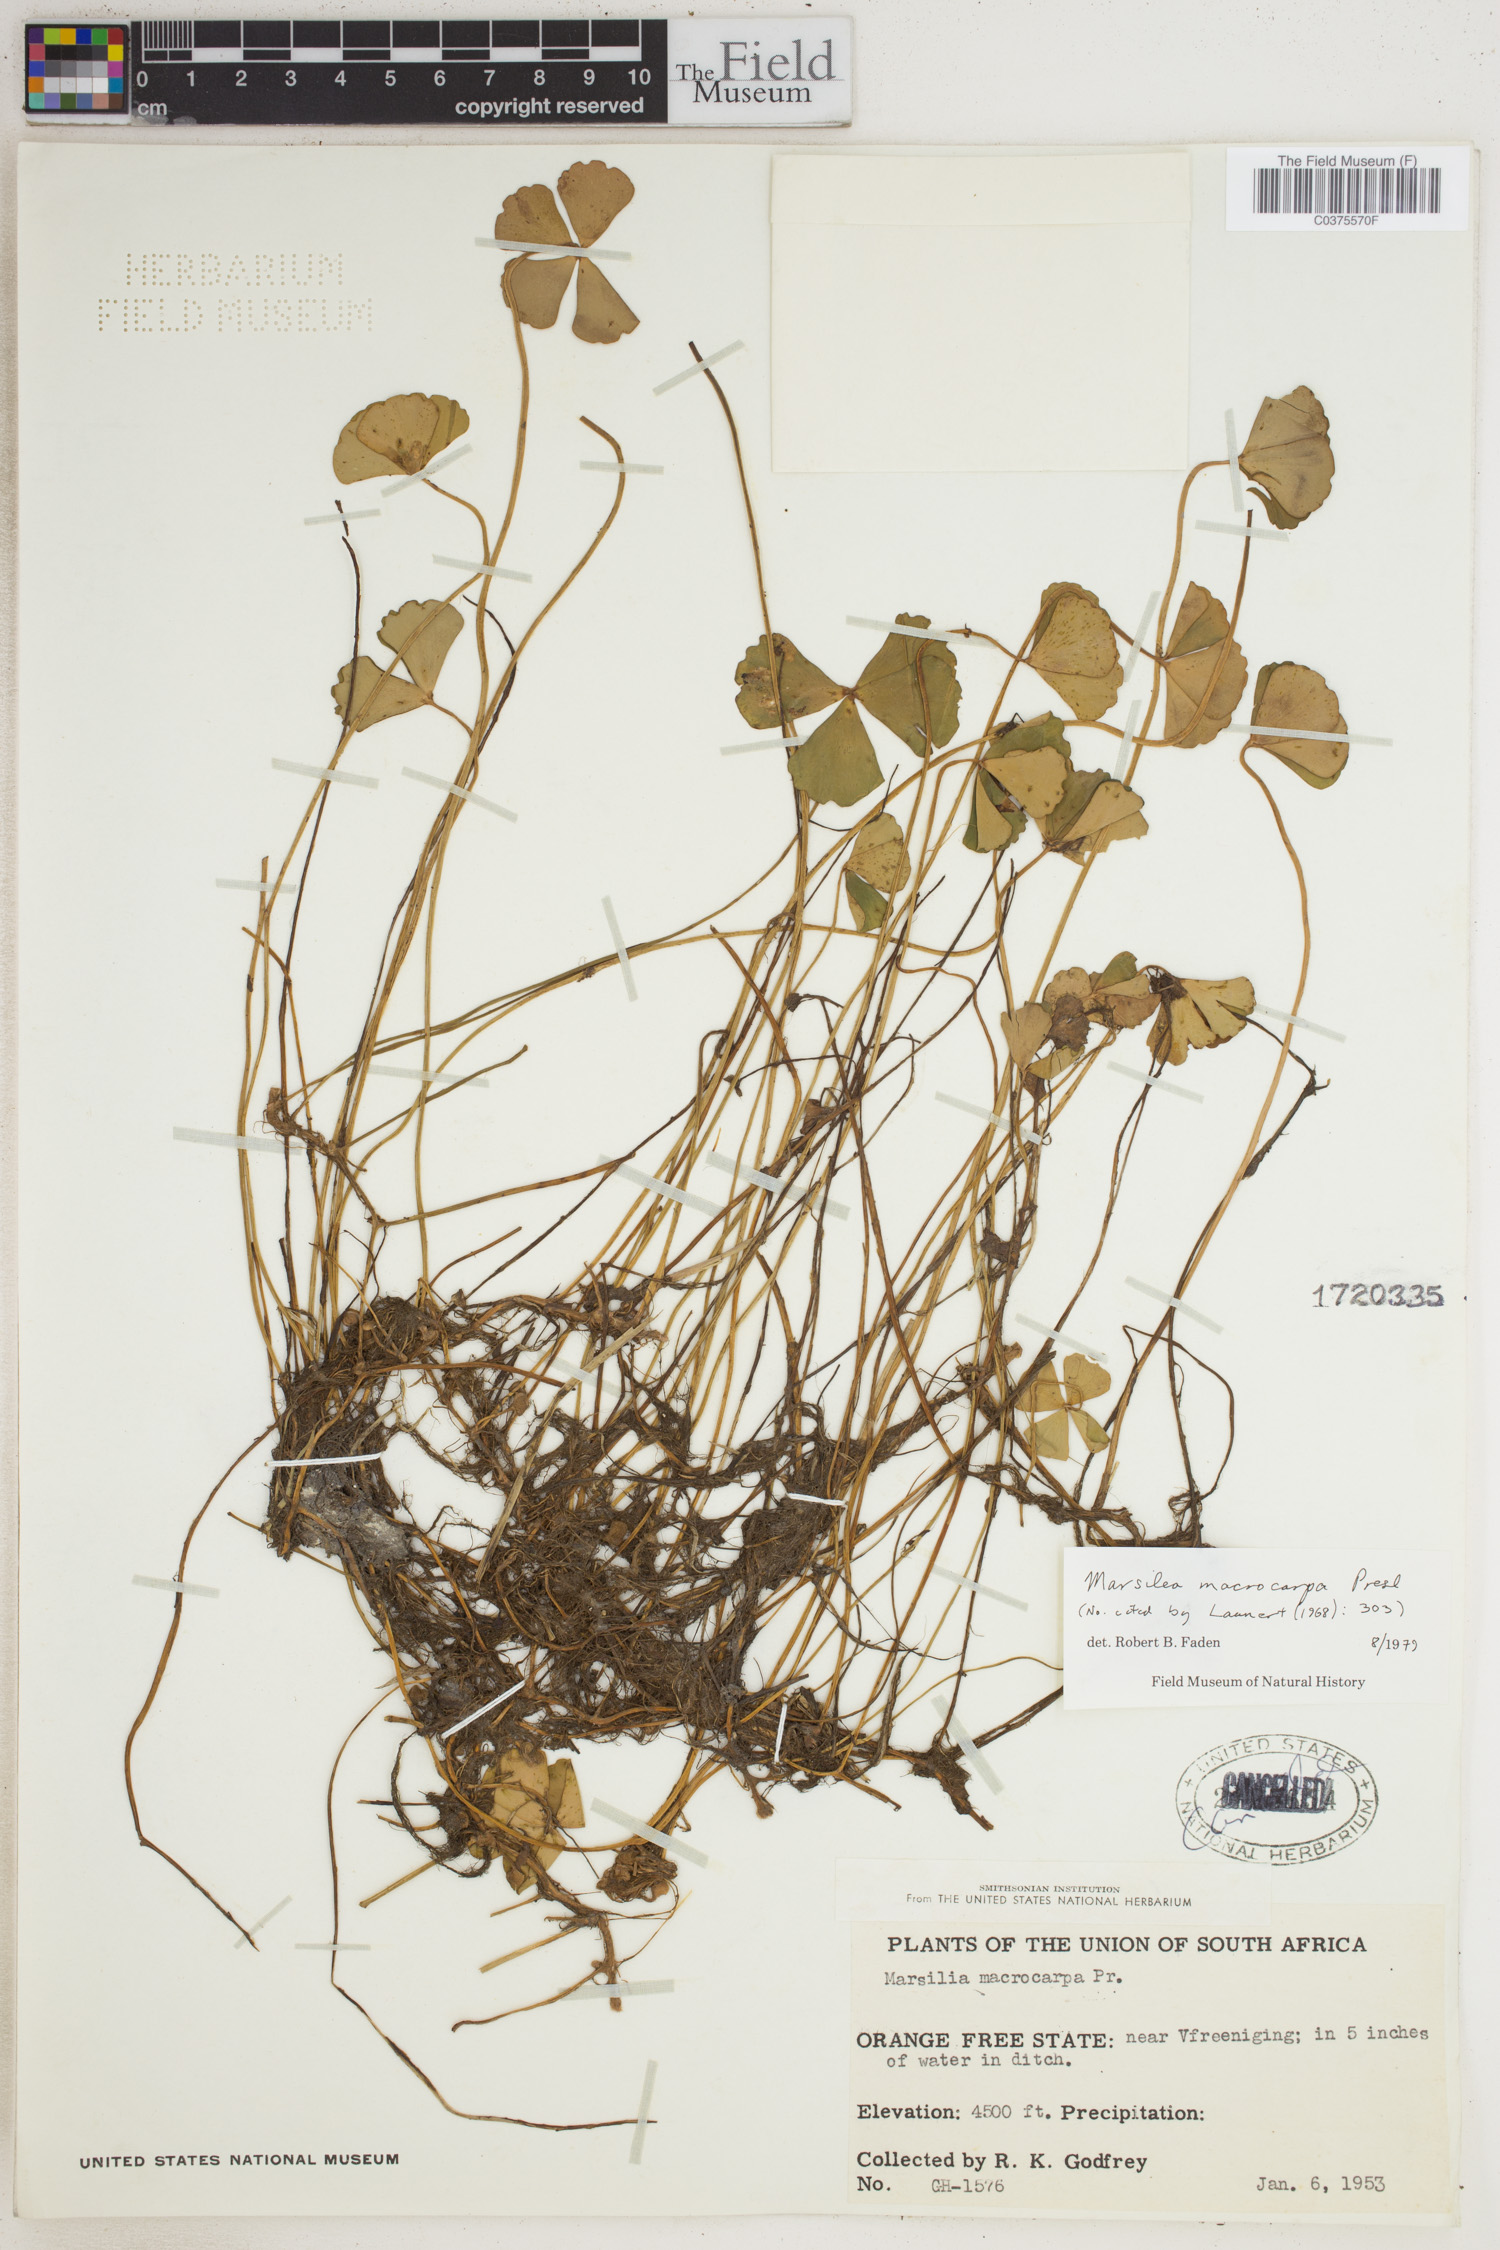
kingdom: Plantae
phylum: Tracheophyta
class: Polypodiopsida
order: Salviniales
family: Marsileaceae
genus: Marsilea
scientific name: Marsilea macrocarpa
